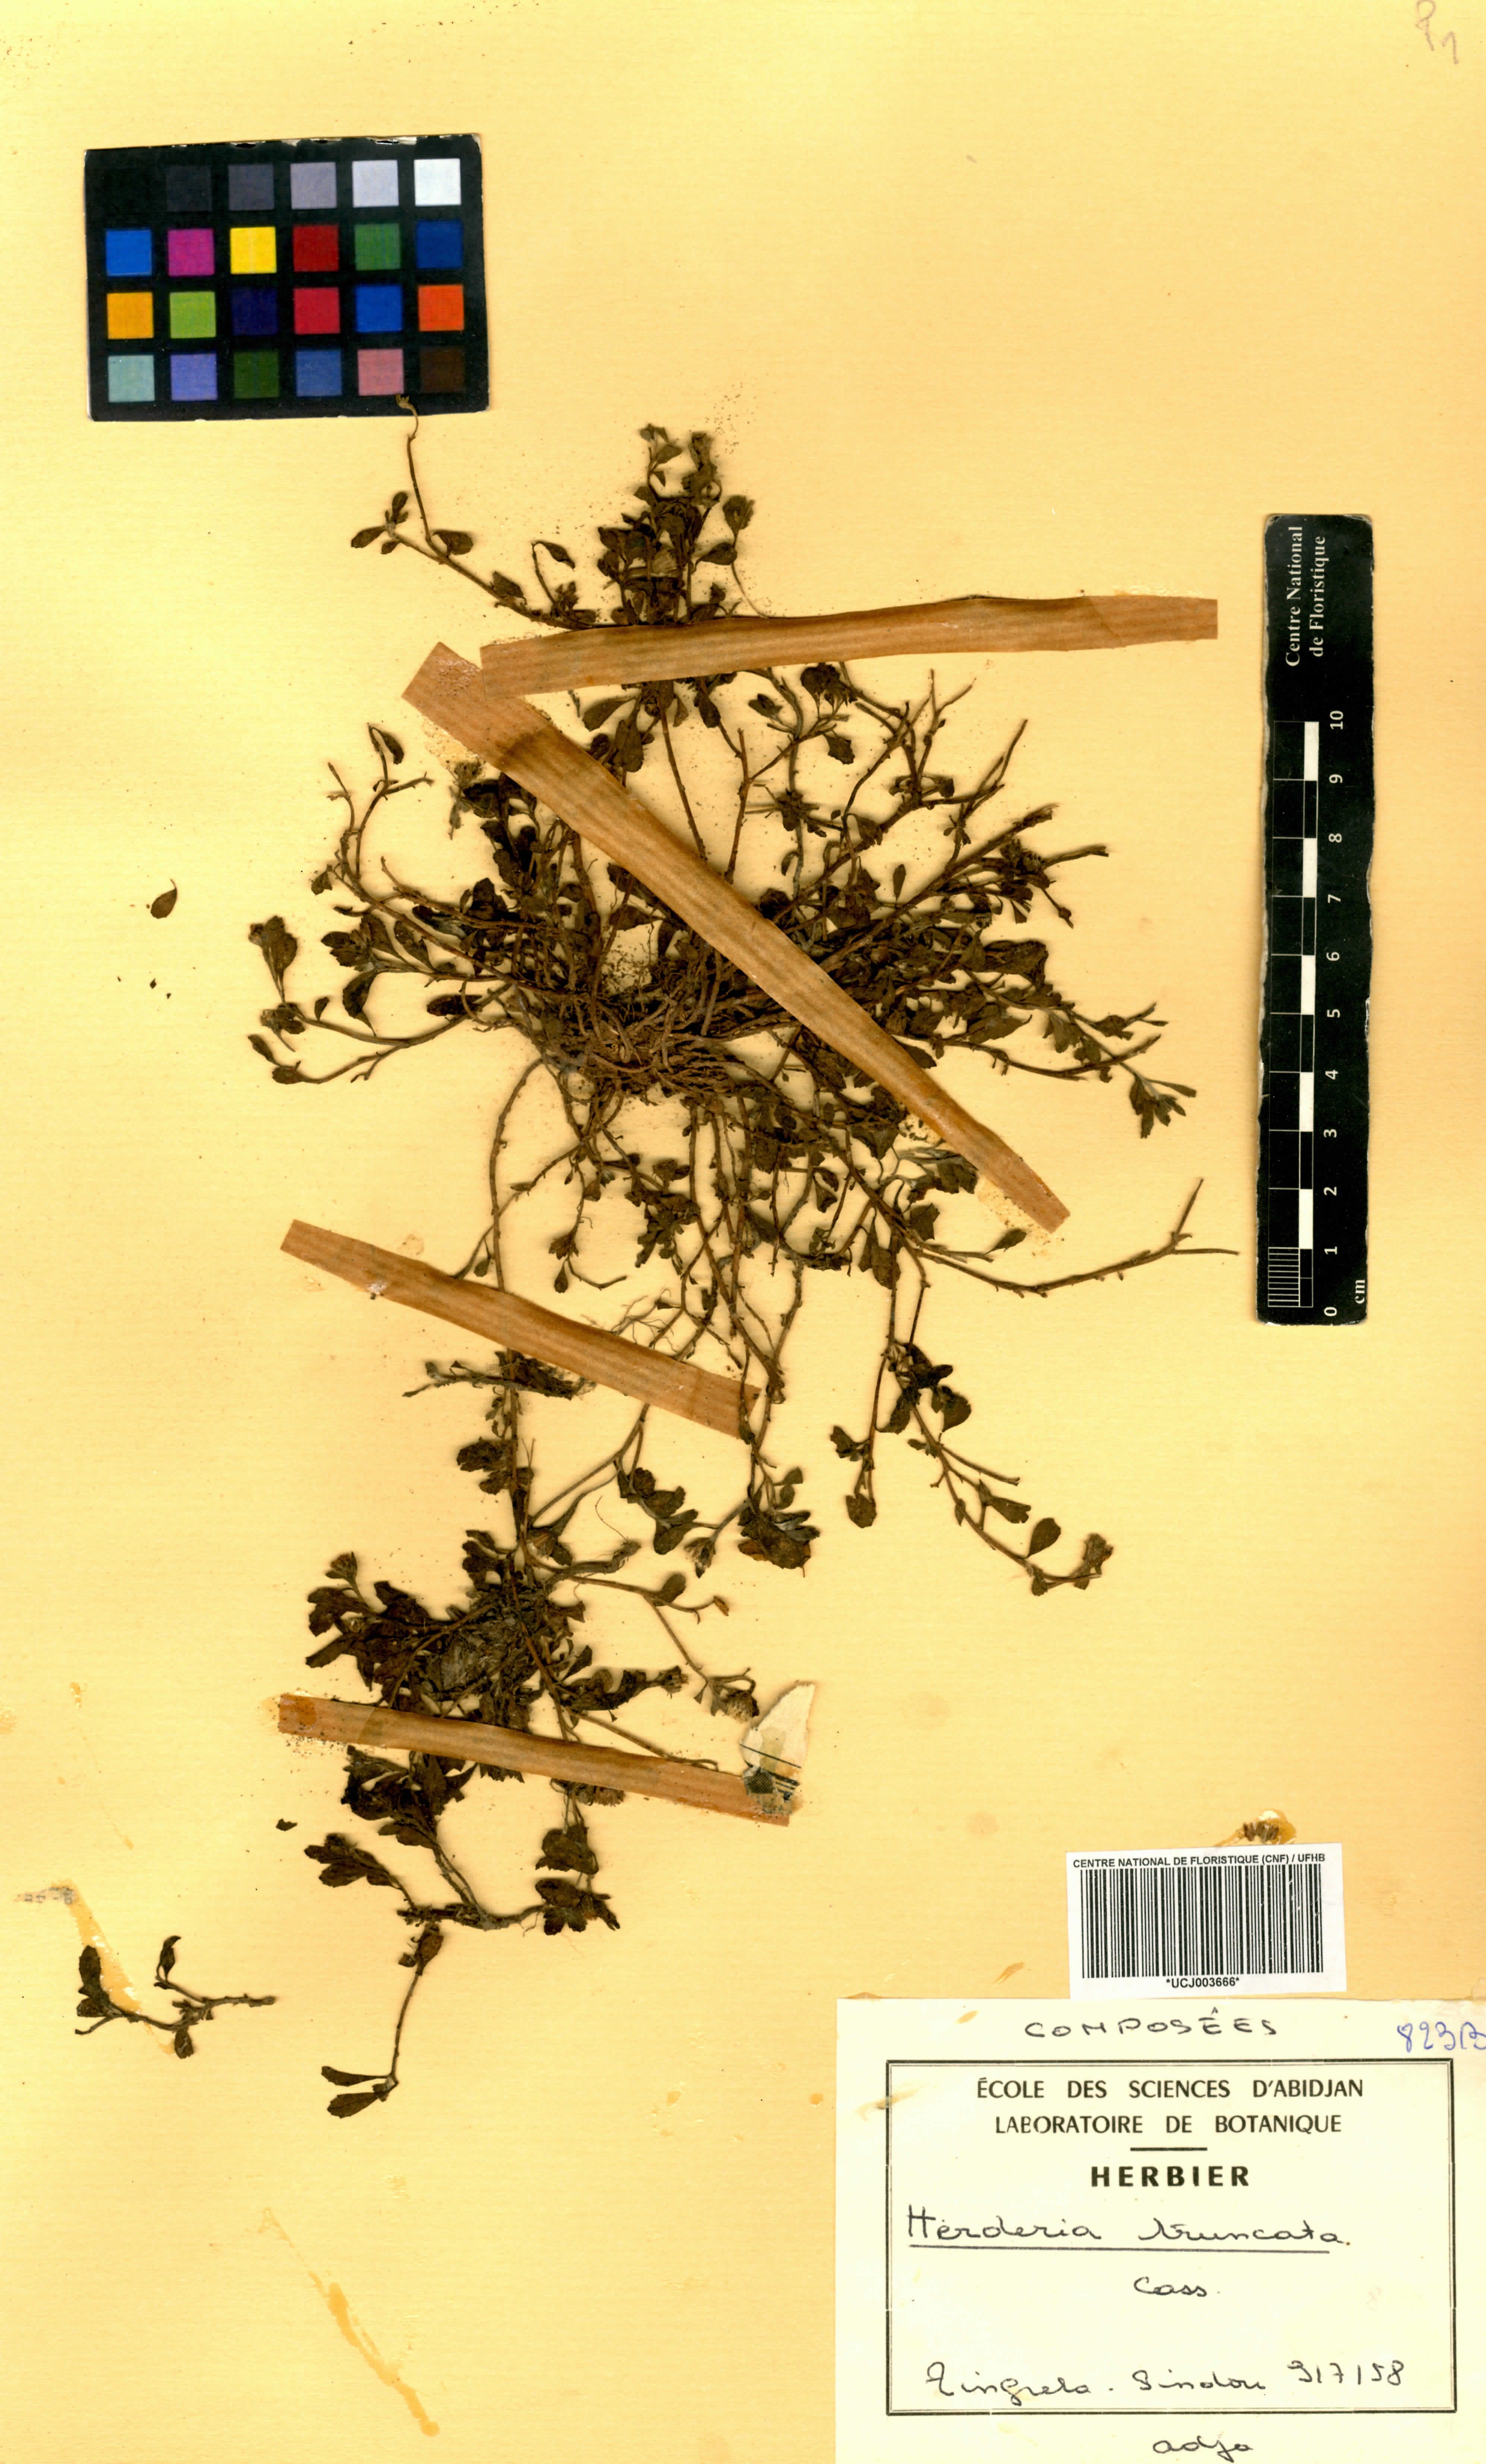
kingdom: Plantae
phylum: Tracheophyta
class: Magnoliopsida
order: Asterales
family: Asteraceae
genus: Herderia
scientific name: Herderia truncata
